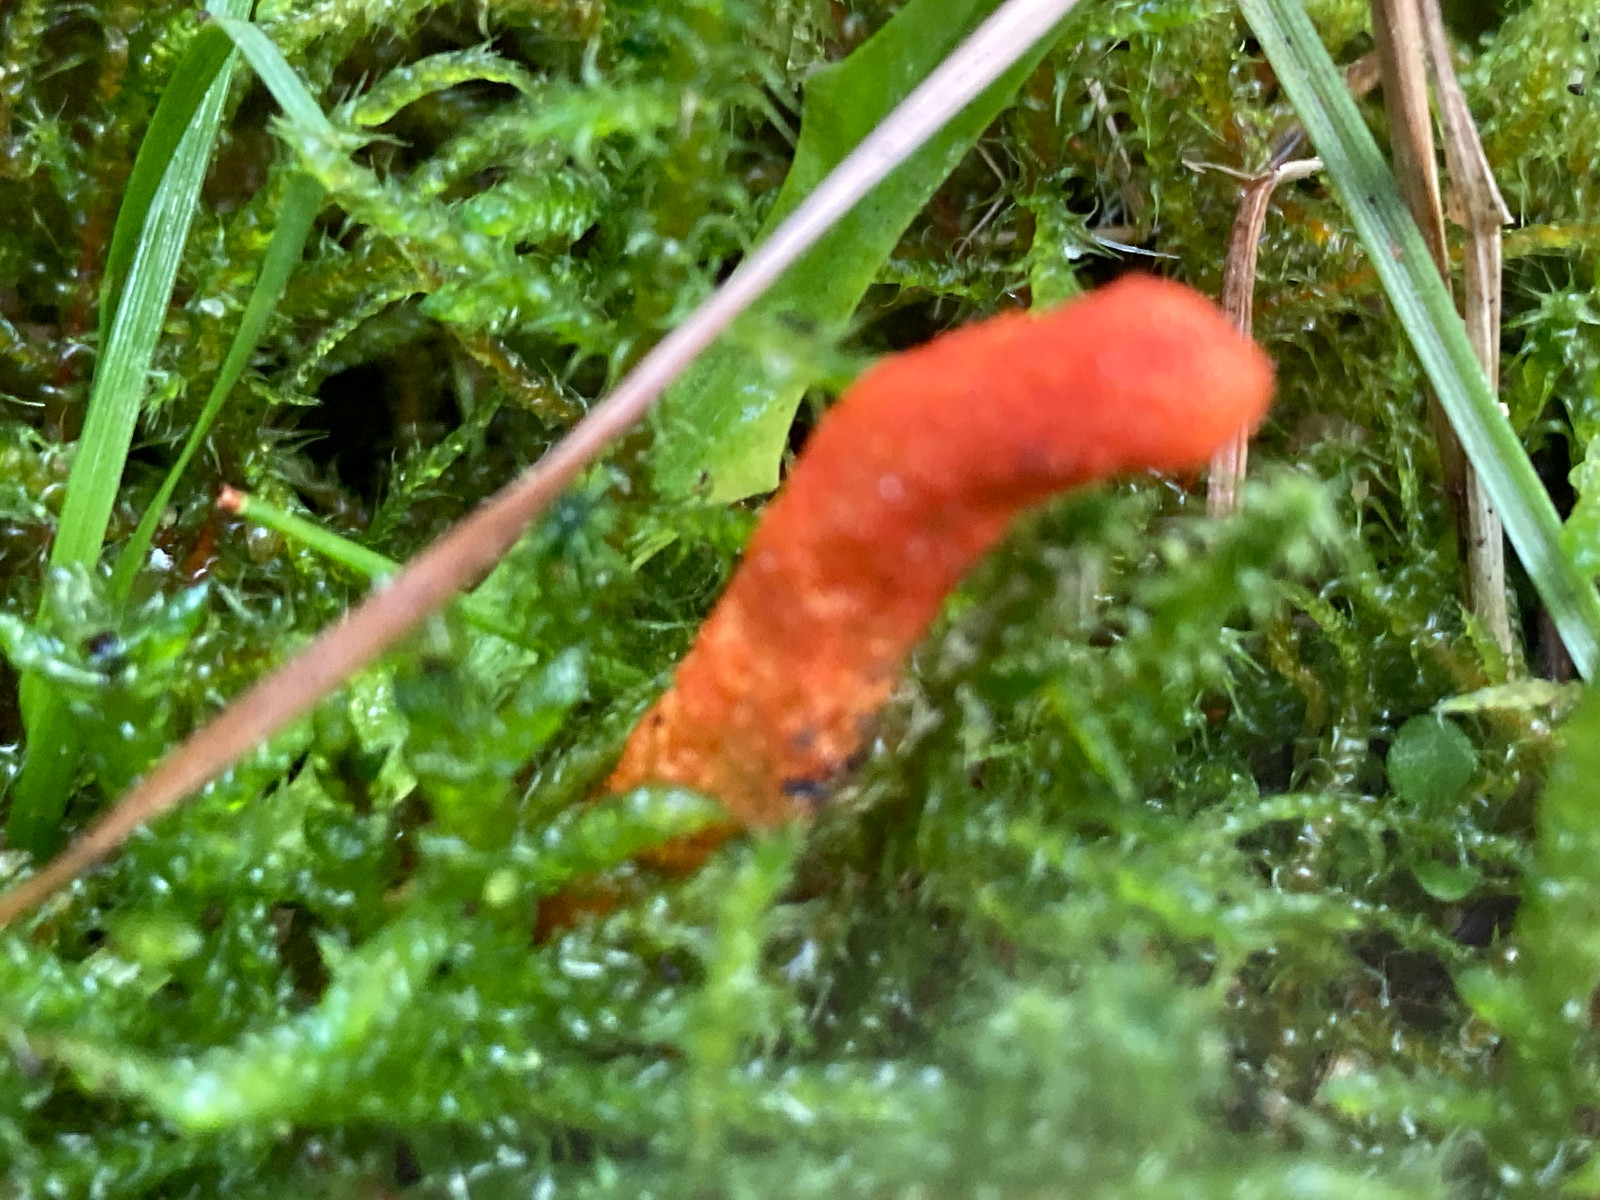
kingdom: Fungi
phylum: Ascomycota
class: Sordariomycetes
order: Hypocreales
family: Cordycipitaceae
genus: Cordyceps
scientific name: Cordyceps militaris
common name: puppe-snyltekølle
